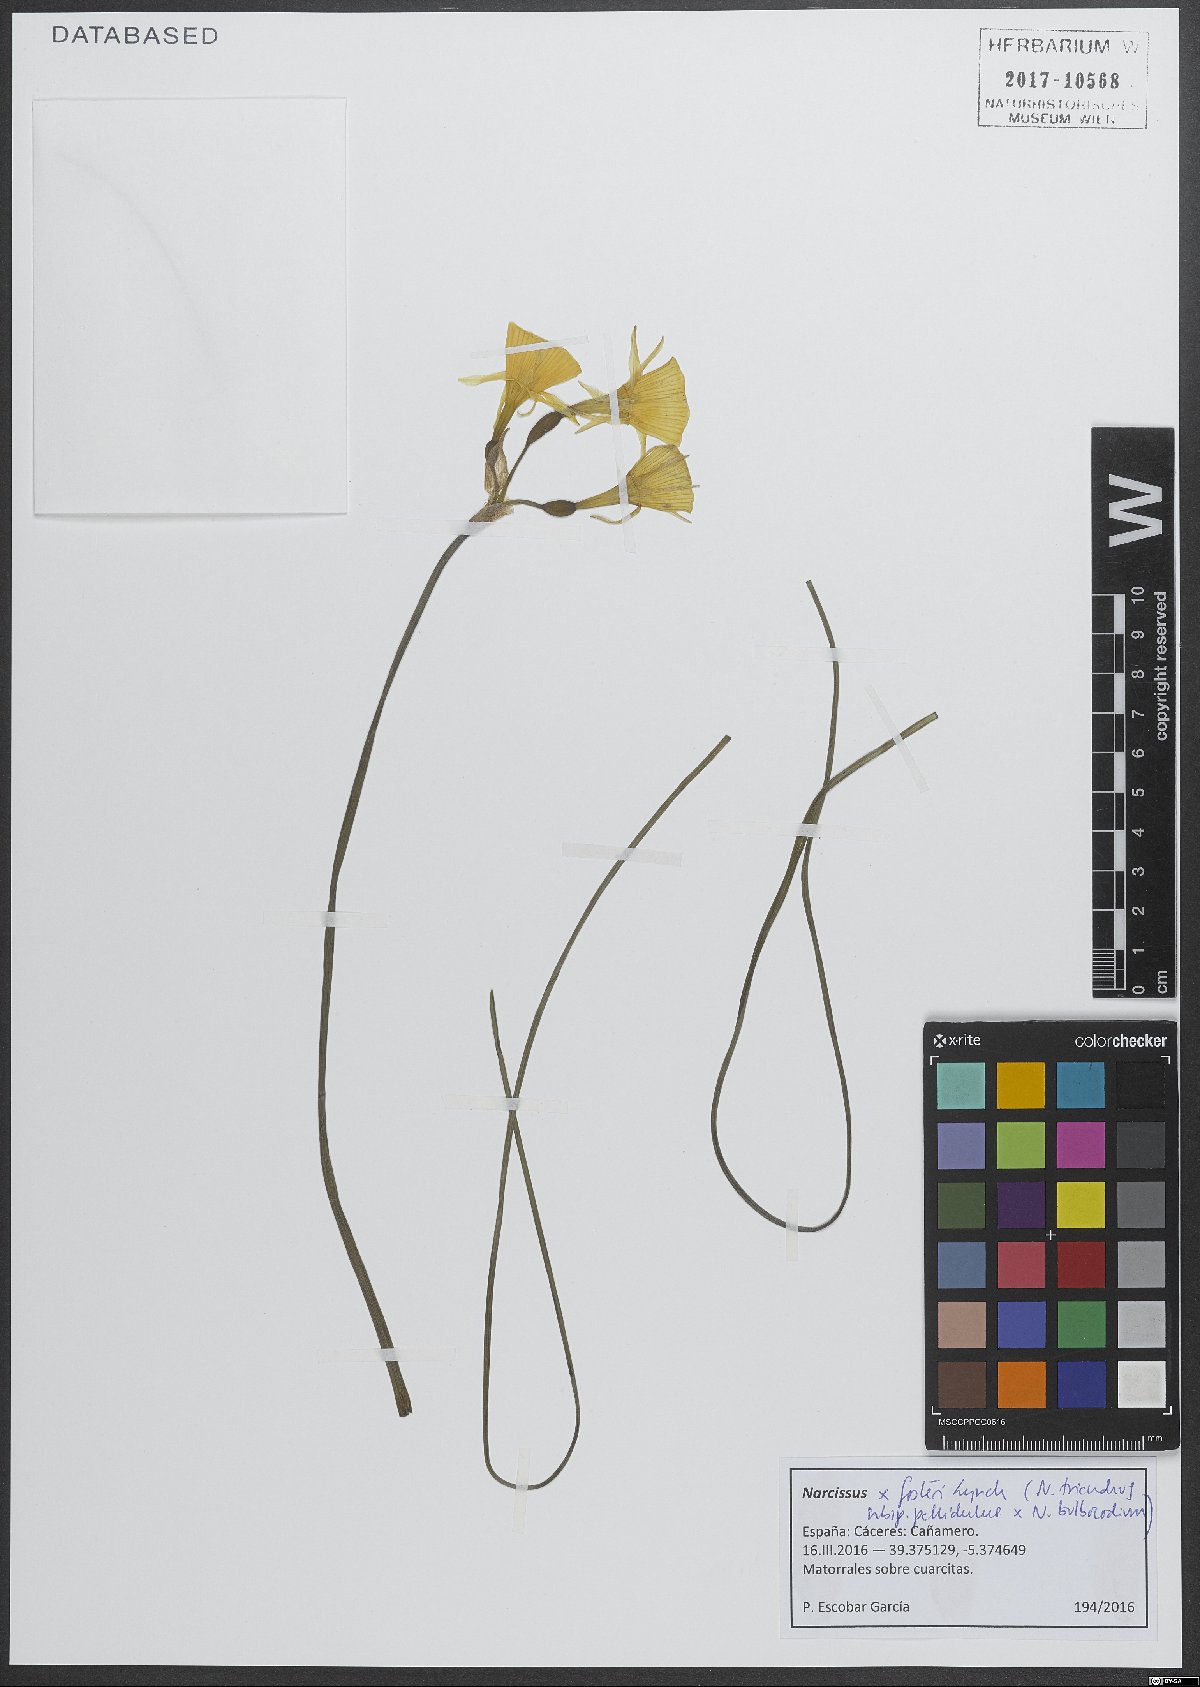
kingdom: Plantae
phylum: Tracheophyta
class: Liliopsida
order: Asparagales
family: Amaryllidaceae
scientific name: Amaryllidaceae
